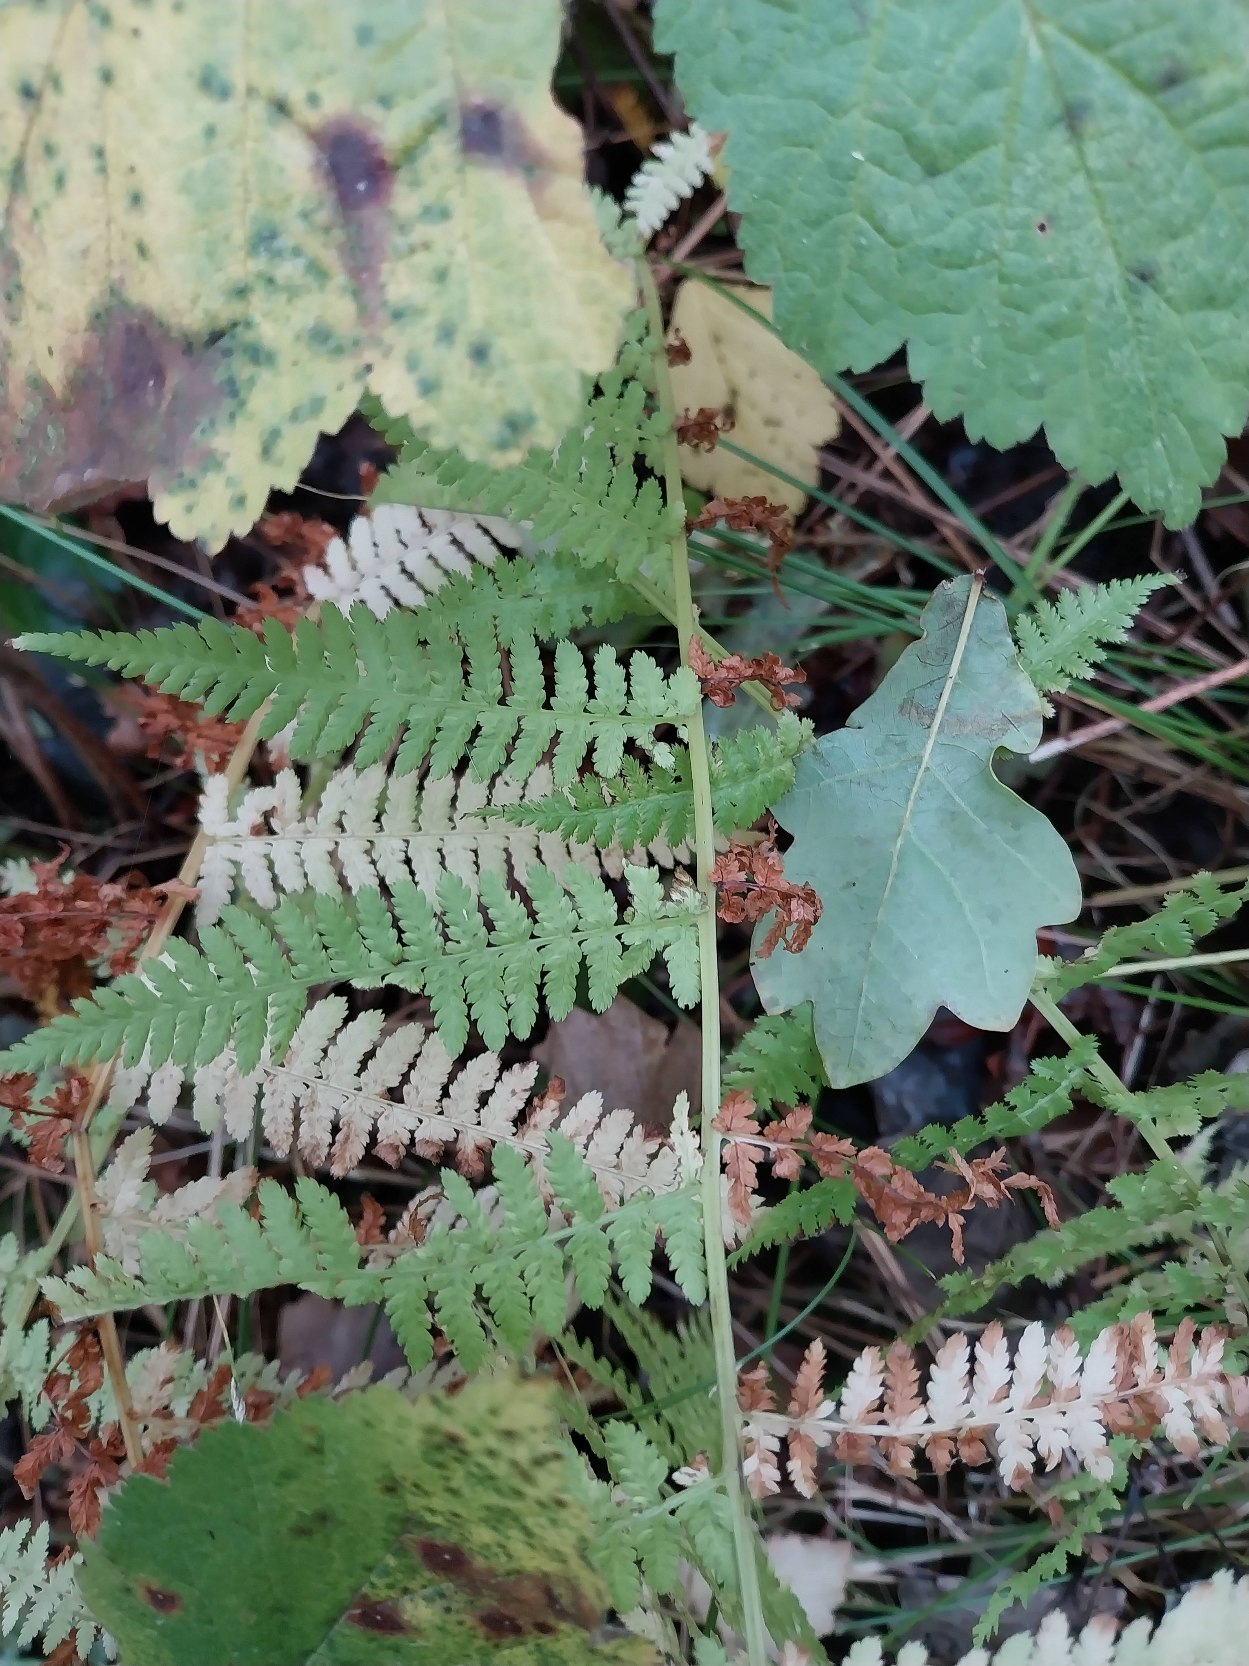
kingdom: Plantae
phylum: Tracheophyta
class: Polypodiopsida
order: Polypodiales
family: Athyriaceae
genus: Athyrium
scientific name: Athyrium filix-femina
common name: Fjerbregne
